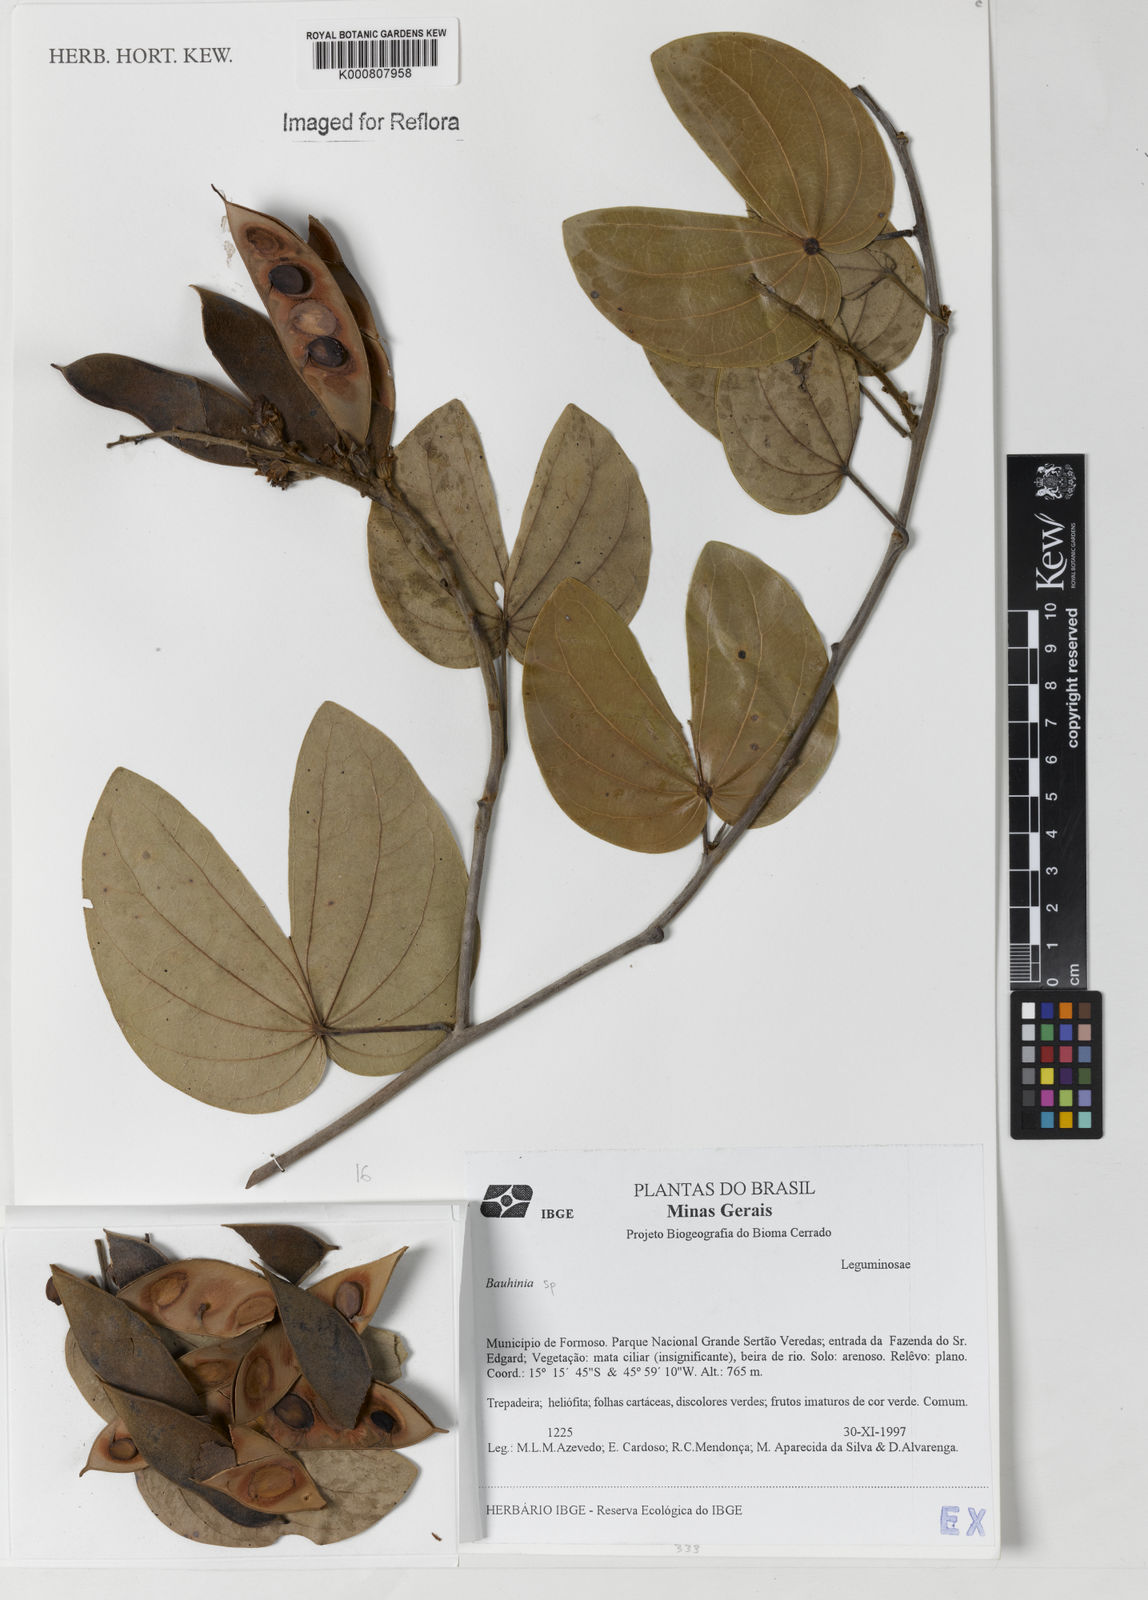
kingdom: Plantae
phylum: Tracheophyta
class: Magnoliopsida
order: Fabales
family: Fabaceae
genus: Schnella
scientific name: Schnella outimouta
